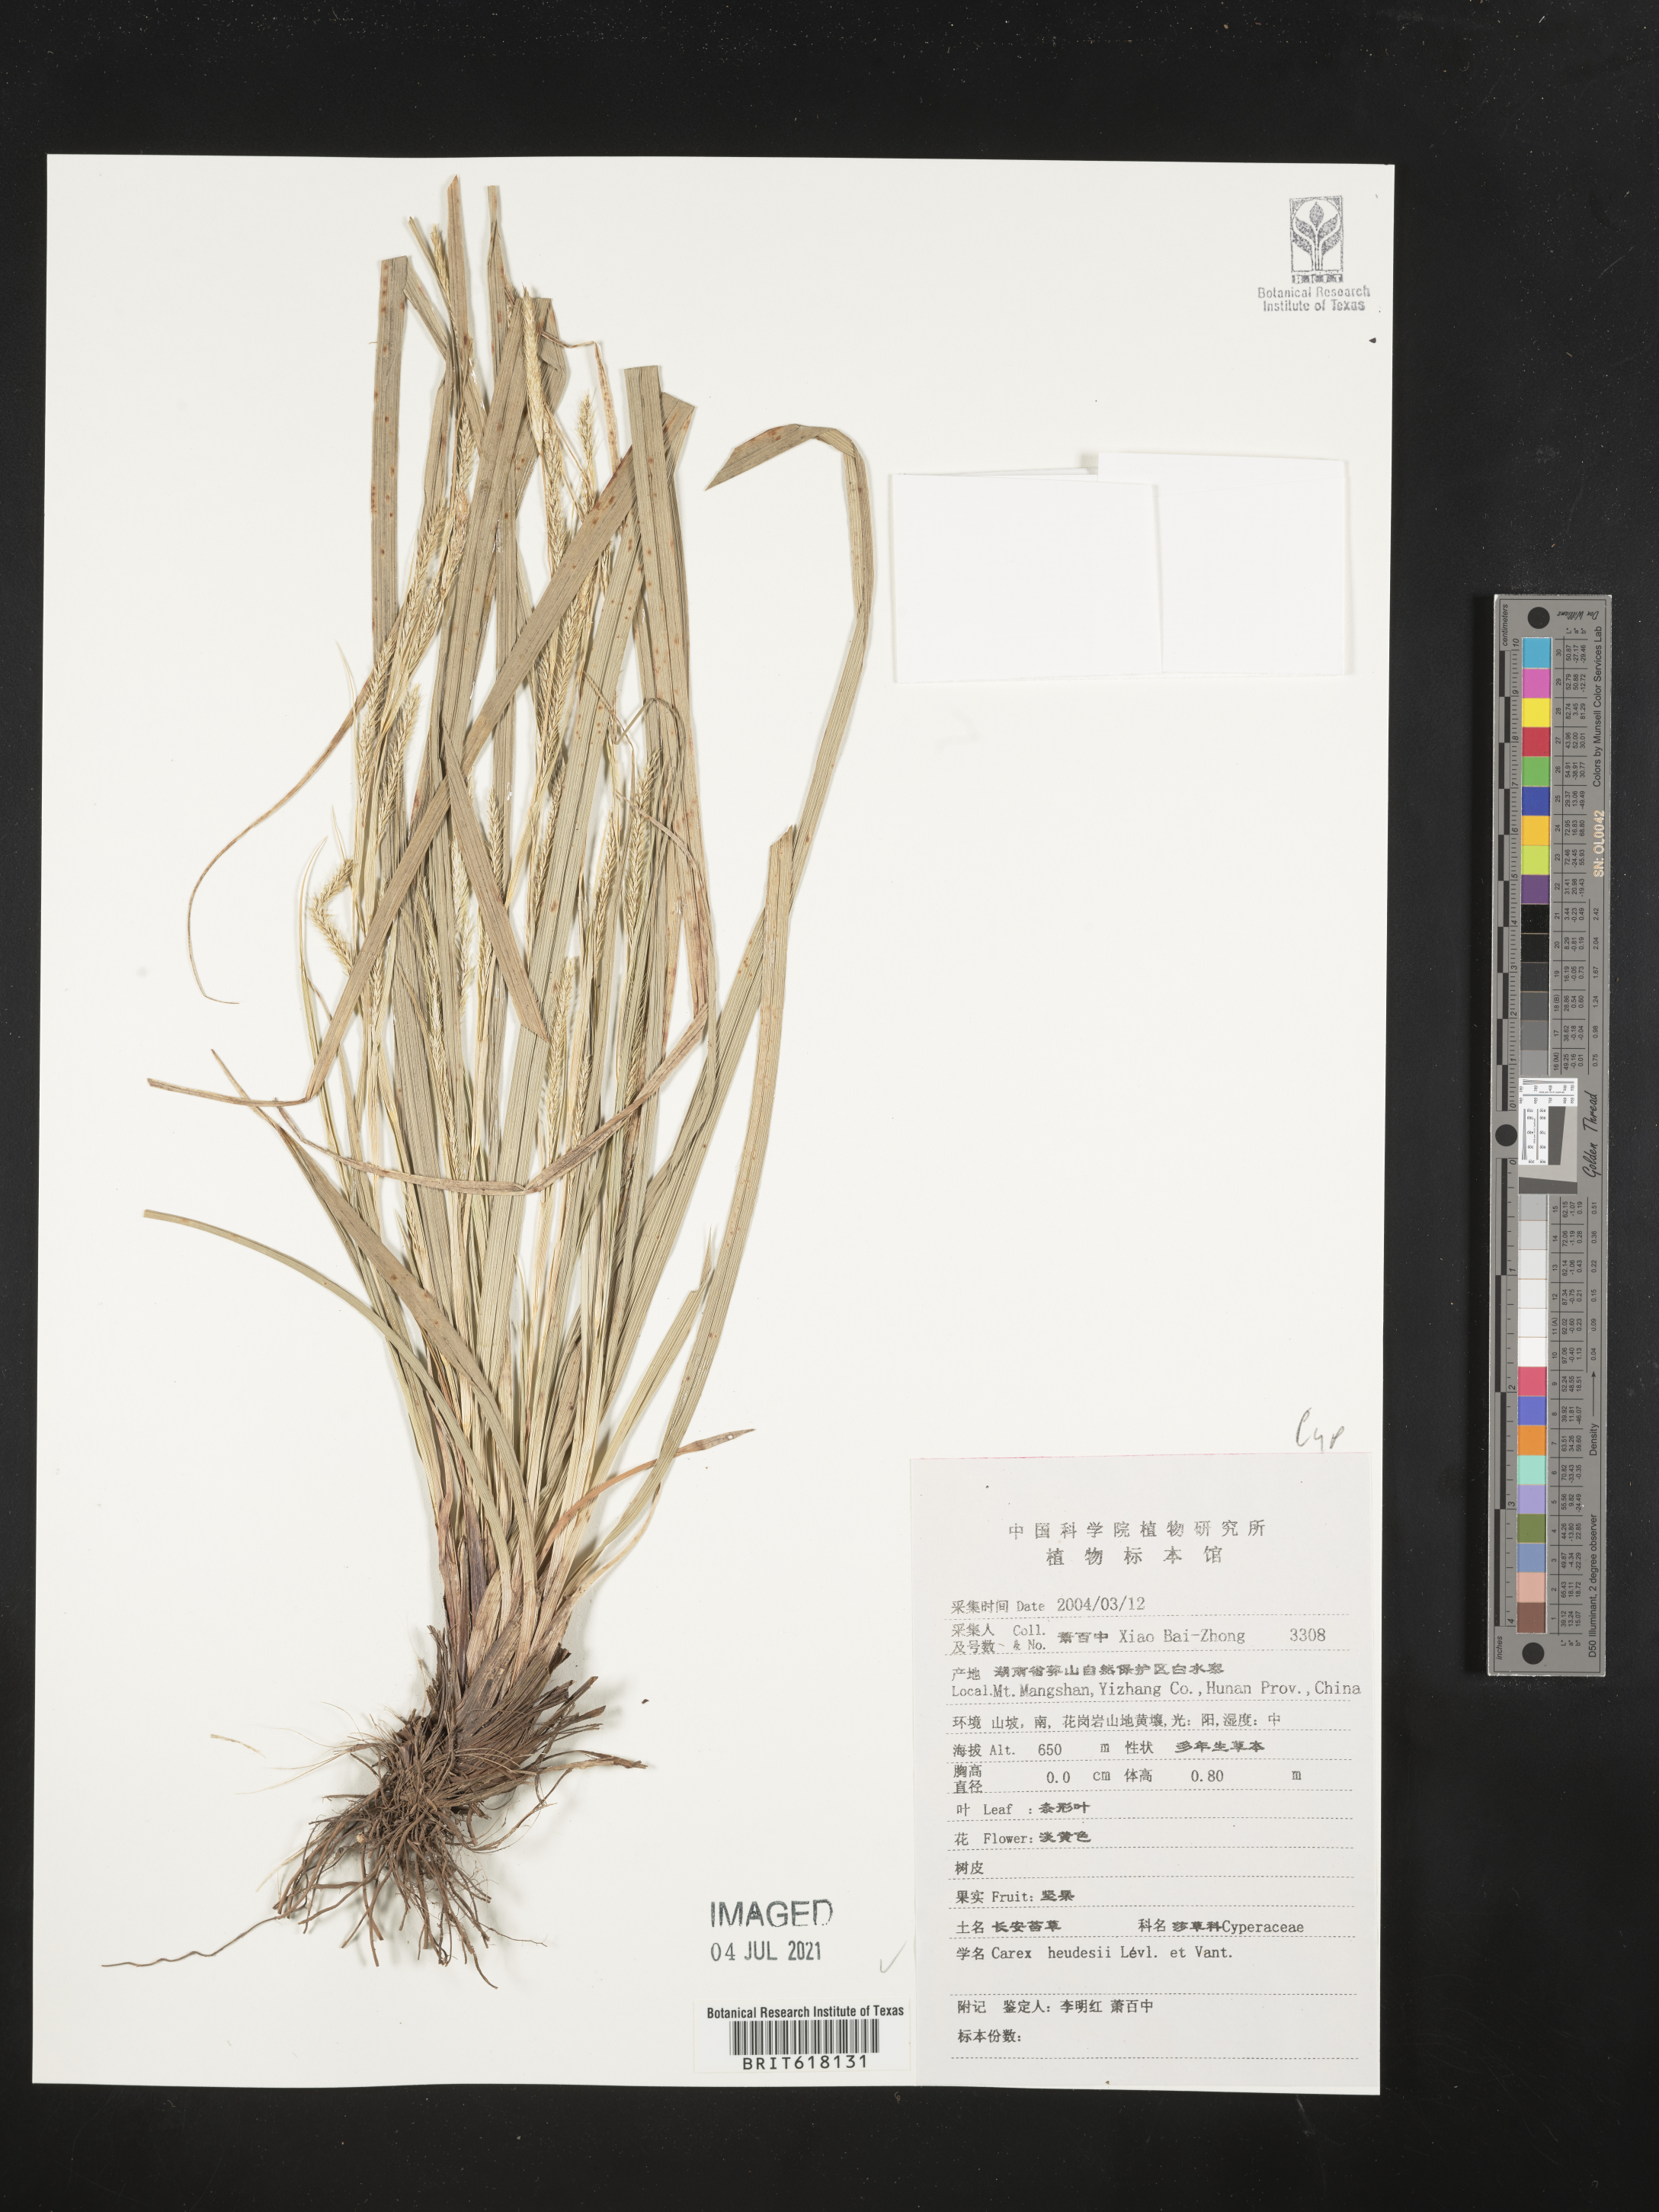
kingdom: Plantae
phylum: Tracheophyta
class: Liliopsida
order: Poales
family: Cyperaceae
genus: Carex
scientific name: Carex heudesii
